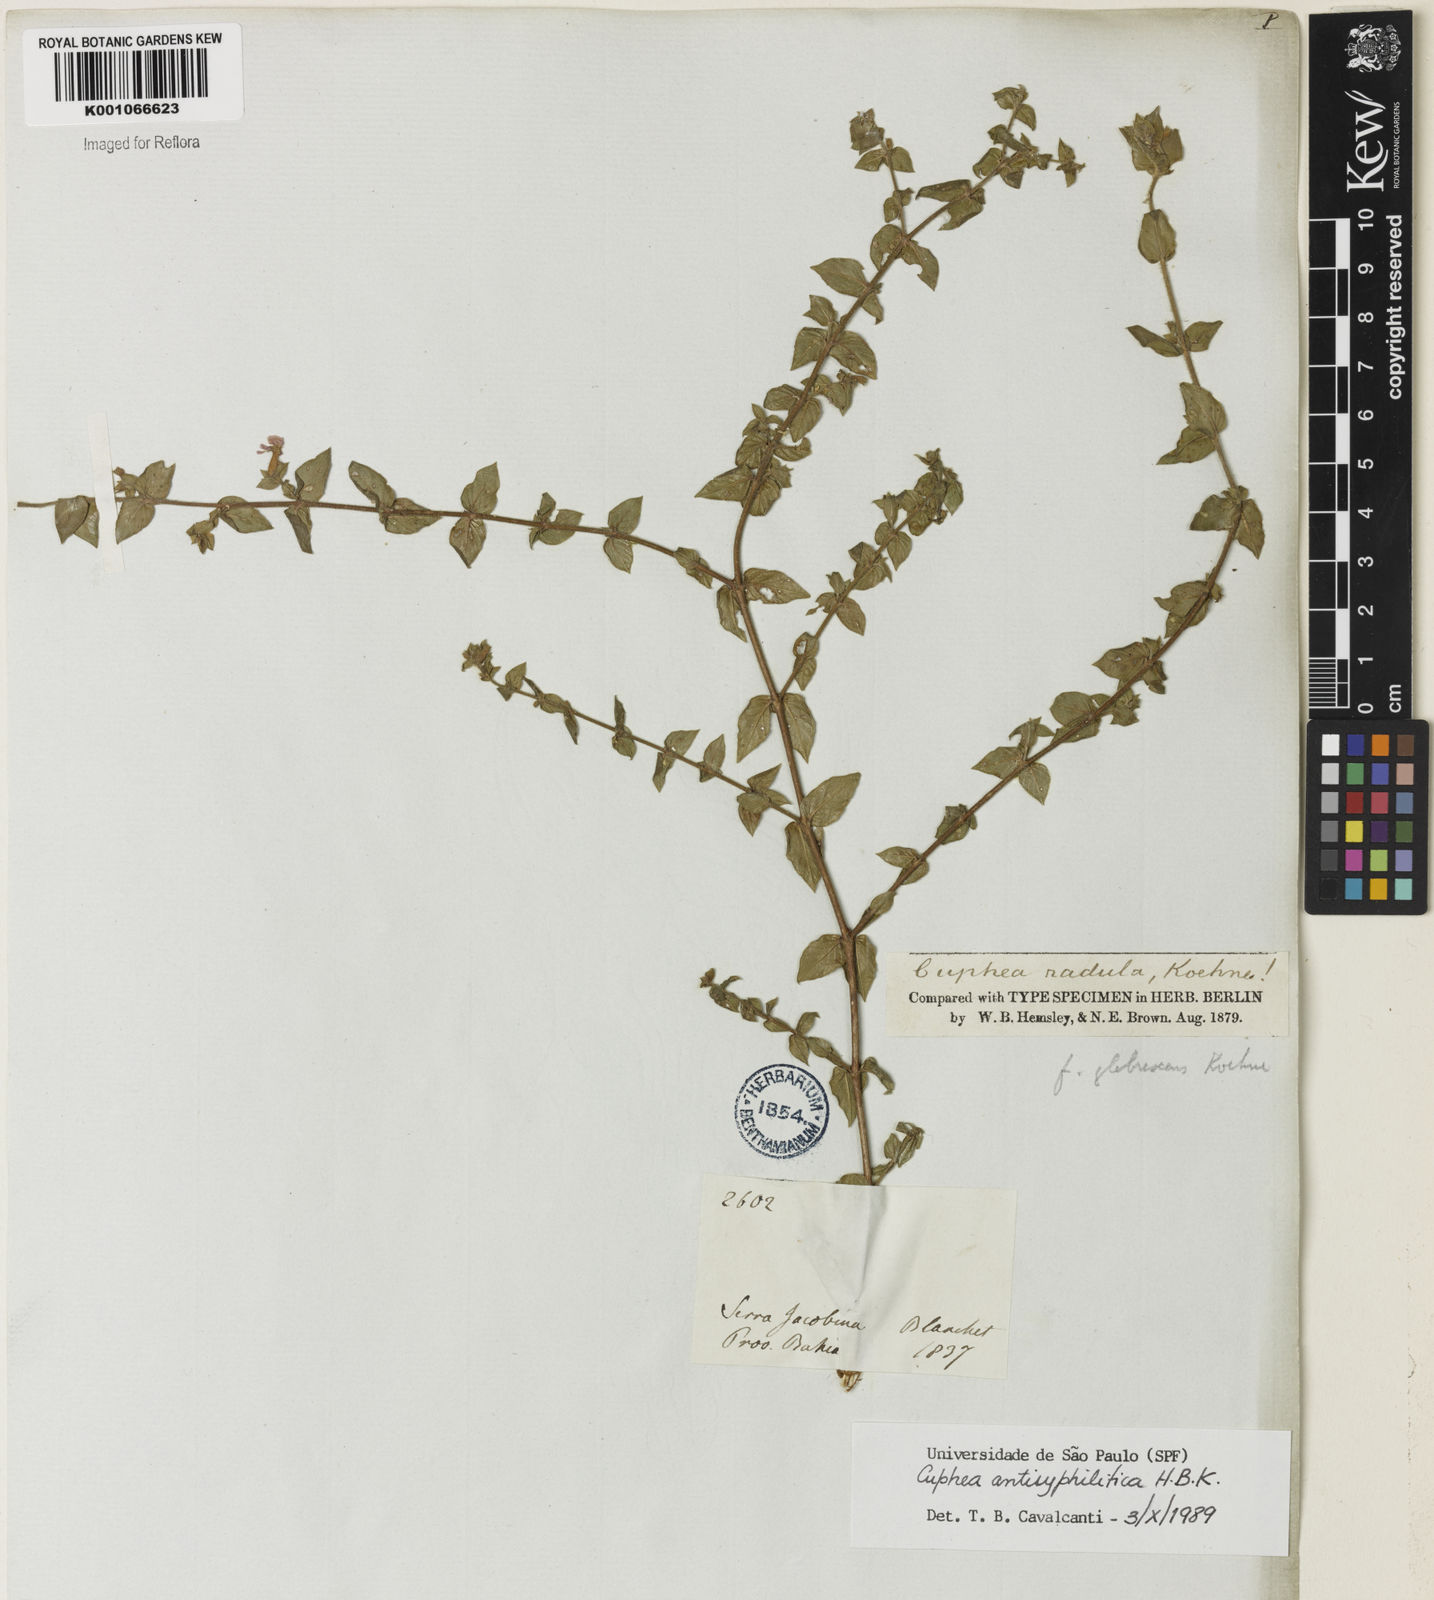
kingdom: Plantae
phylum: Tracheophyta
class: Magnoliopsida
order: Myrtales
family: Lythraceae
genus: Cuphea
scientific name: Cuphea antisyphilitica
